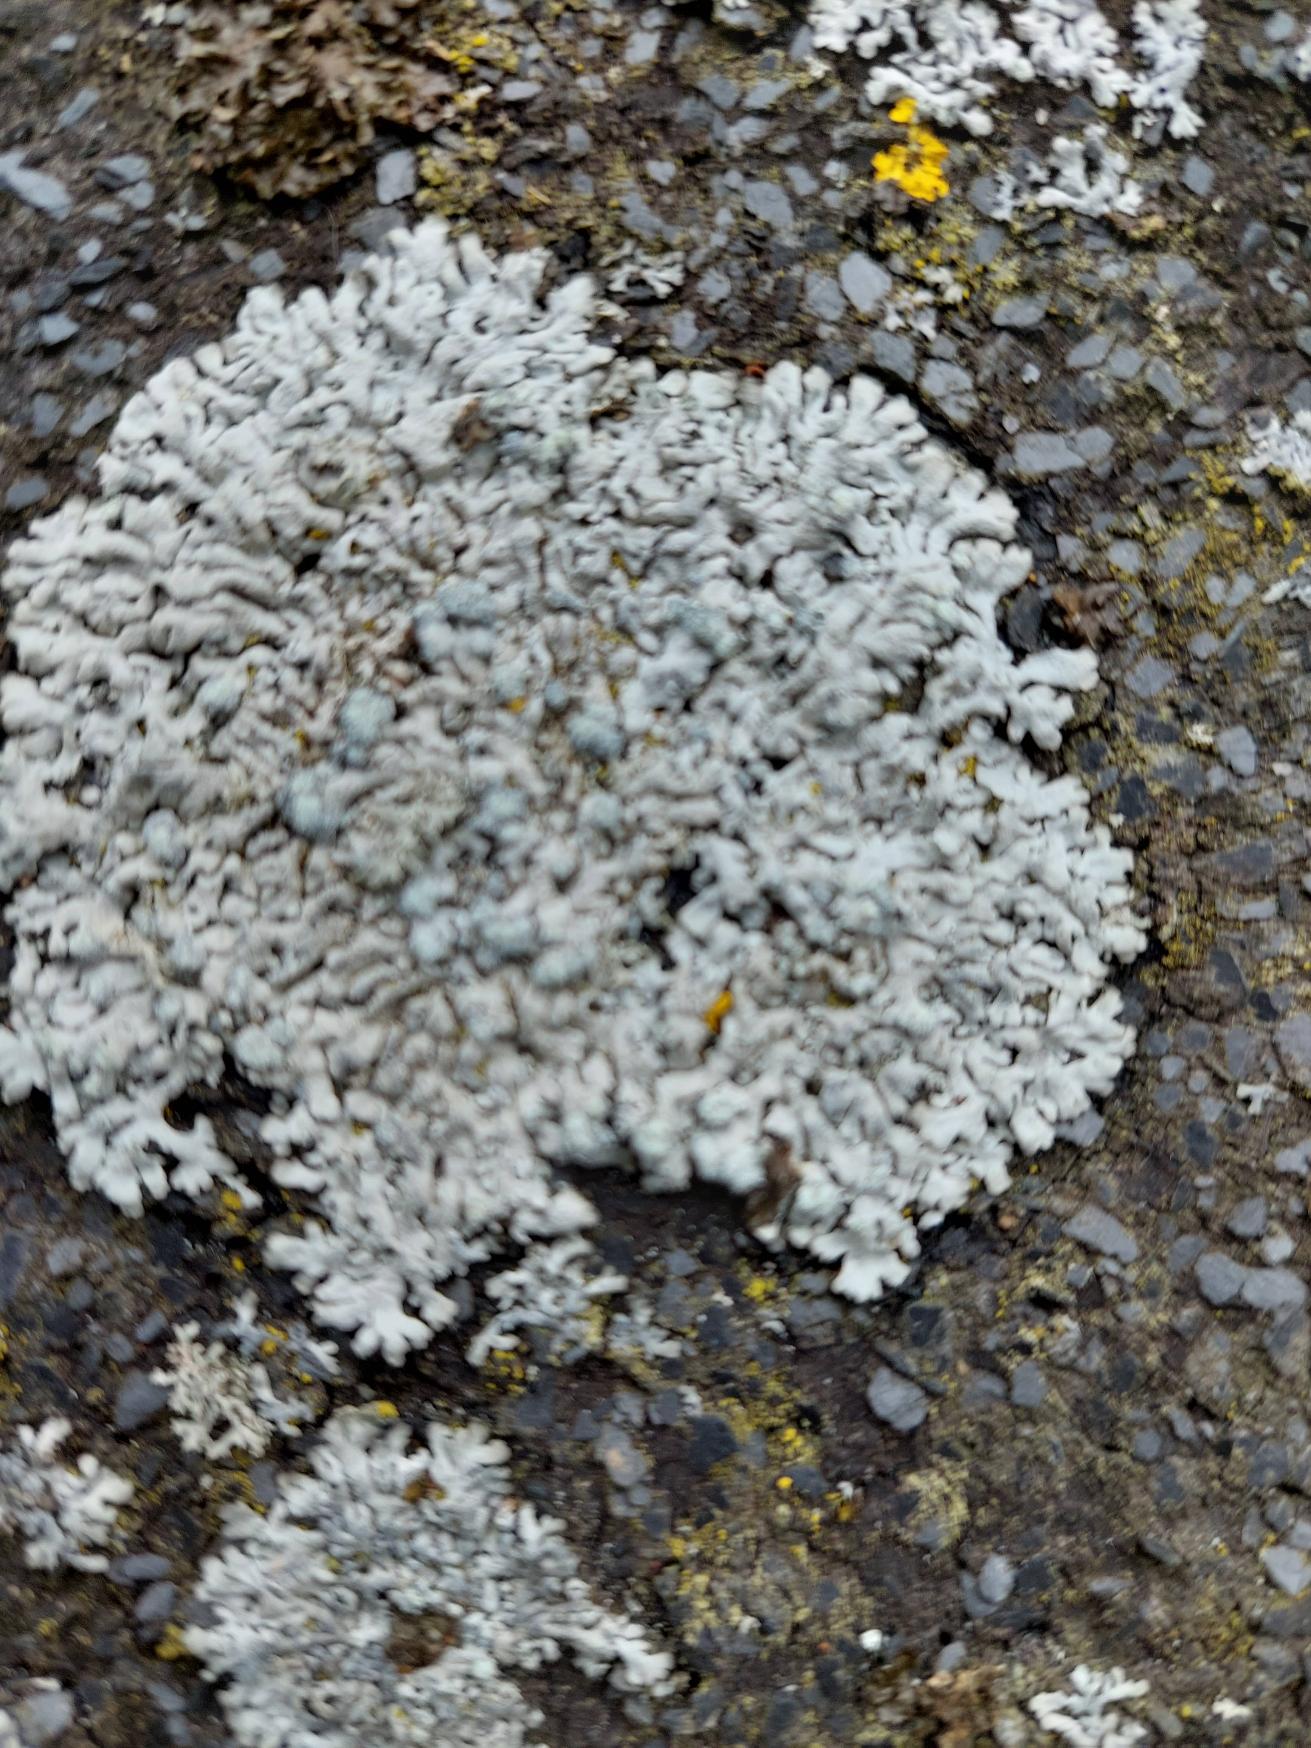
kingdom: Fungi
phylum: Ascomycota
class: Lecanoromycetes
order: Caliciales
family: Physciaceae
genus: Physcia
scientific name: Physcia caesia
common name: Blågrå rosetlav
